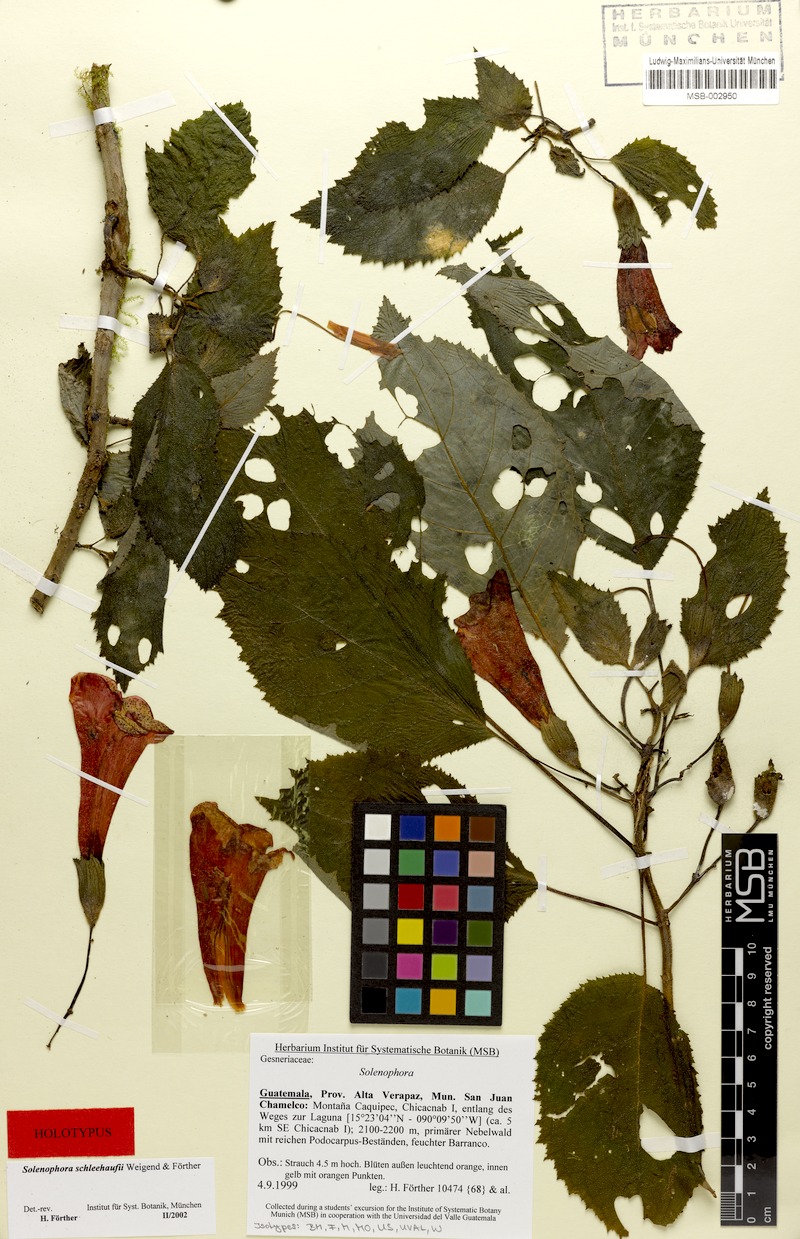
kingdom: Plantae
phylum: Tracheophyta
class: Magnoliopsida
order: Lamiales
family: Gesneriaceae
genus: Solenophora
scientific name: Solenophora schleehaufii
